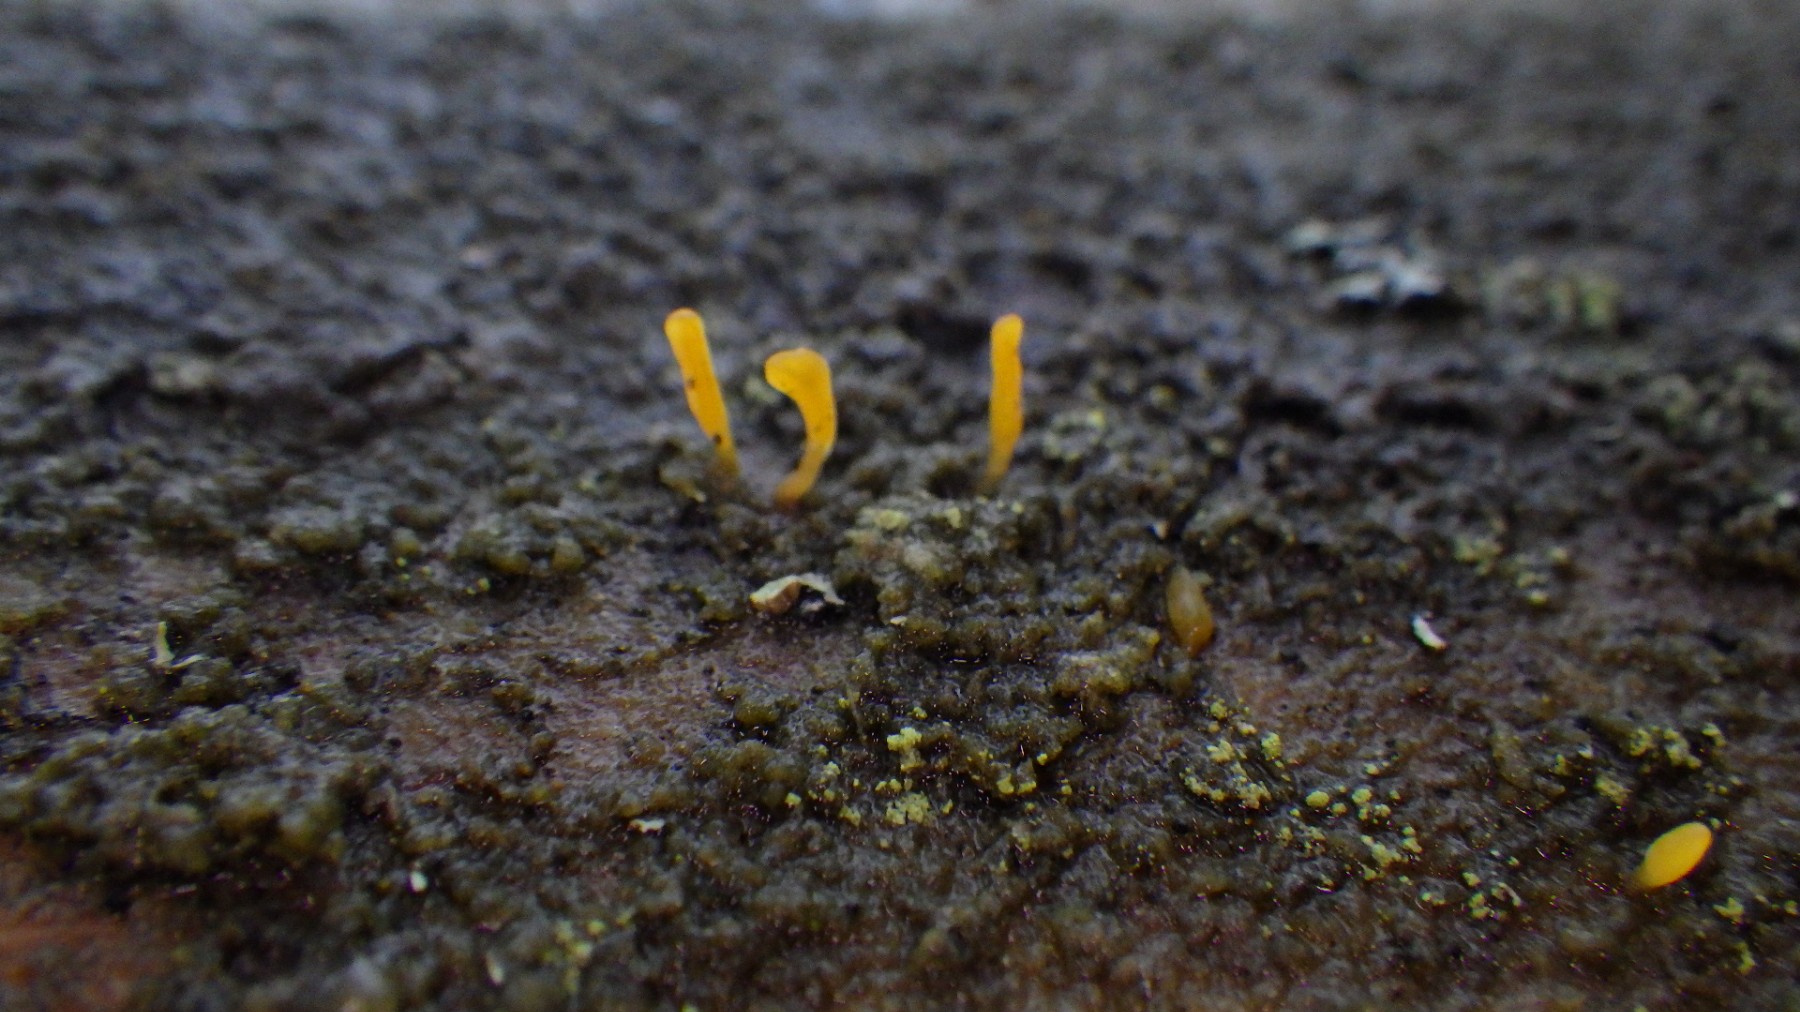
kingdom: Fungi
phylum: Basidiomycota
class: Dacrymycetes
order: Dacrymycetales
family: Dacrymycetaceae
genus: Calocera
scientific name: Calocera furcata
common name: fyrre-guldgaffel
